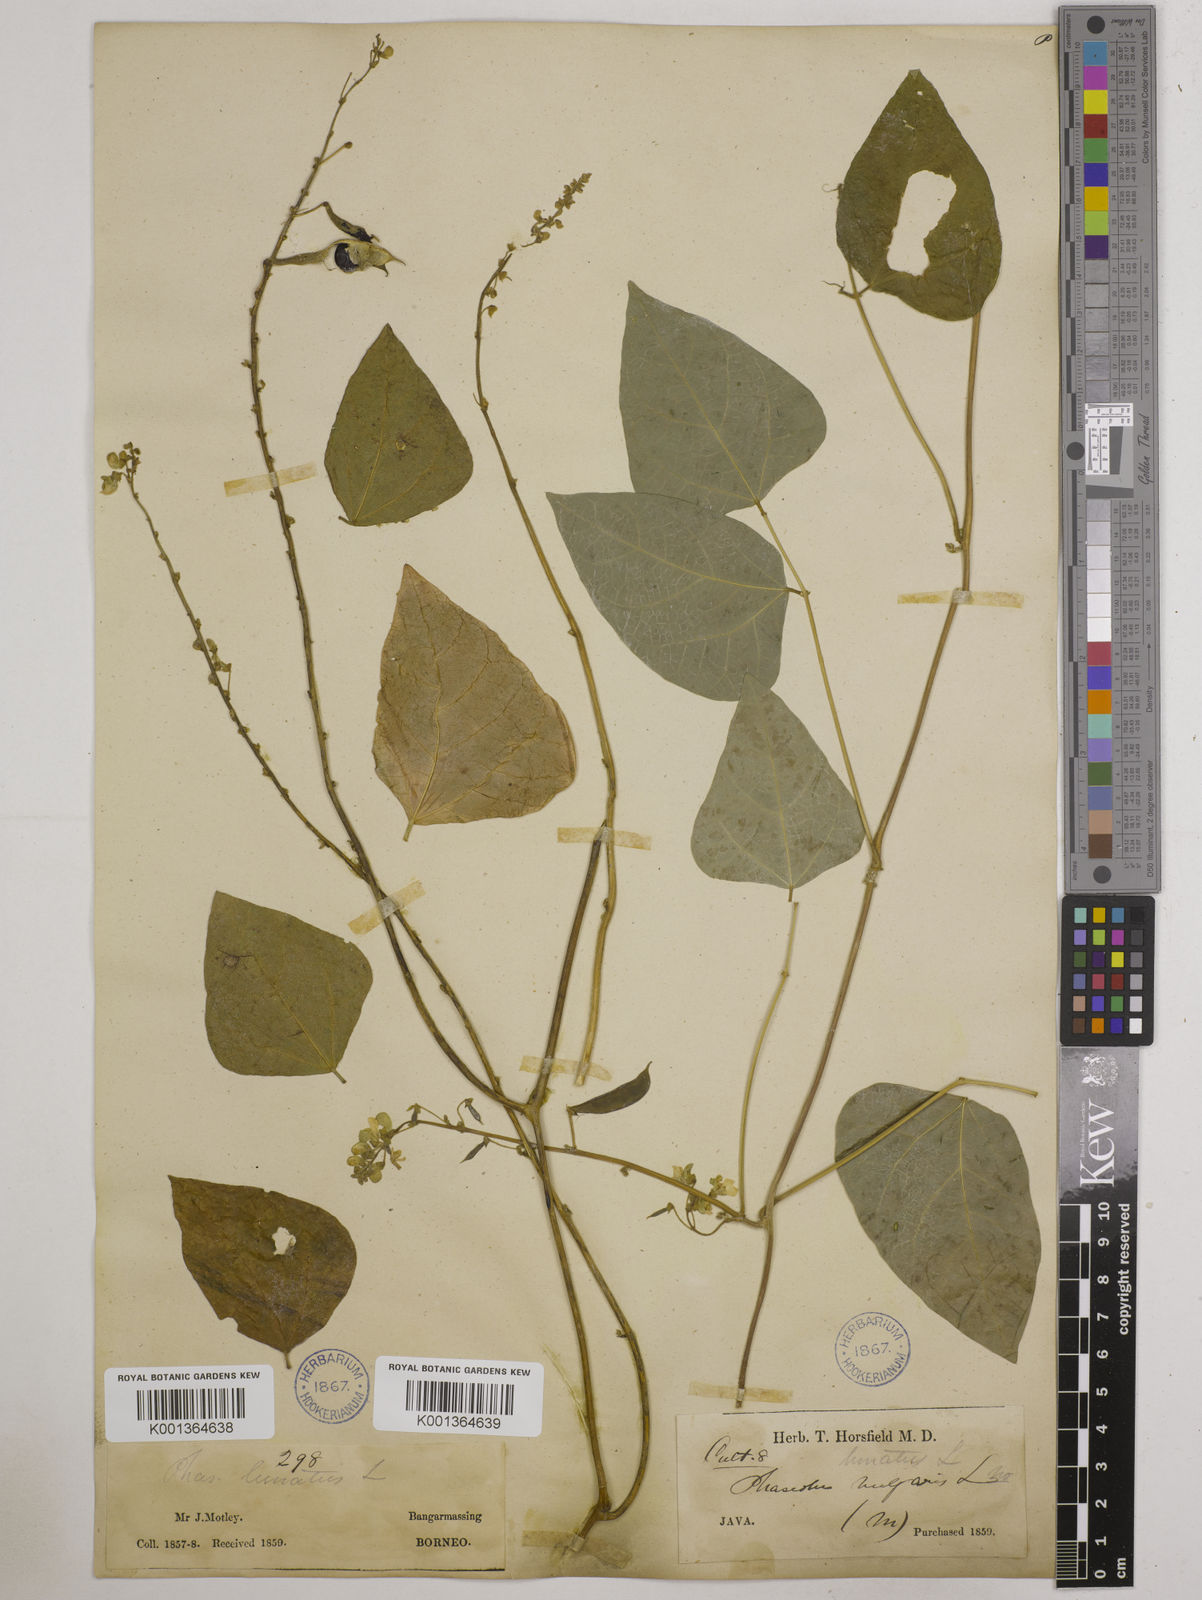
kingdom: Plantae
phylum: Tracheophyta
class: Magnoliopsida
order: Fabales
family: Fabaceae
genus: Phaseolus
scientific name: Phaseolus lunatus
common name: Sieva bean
